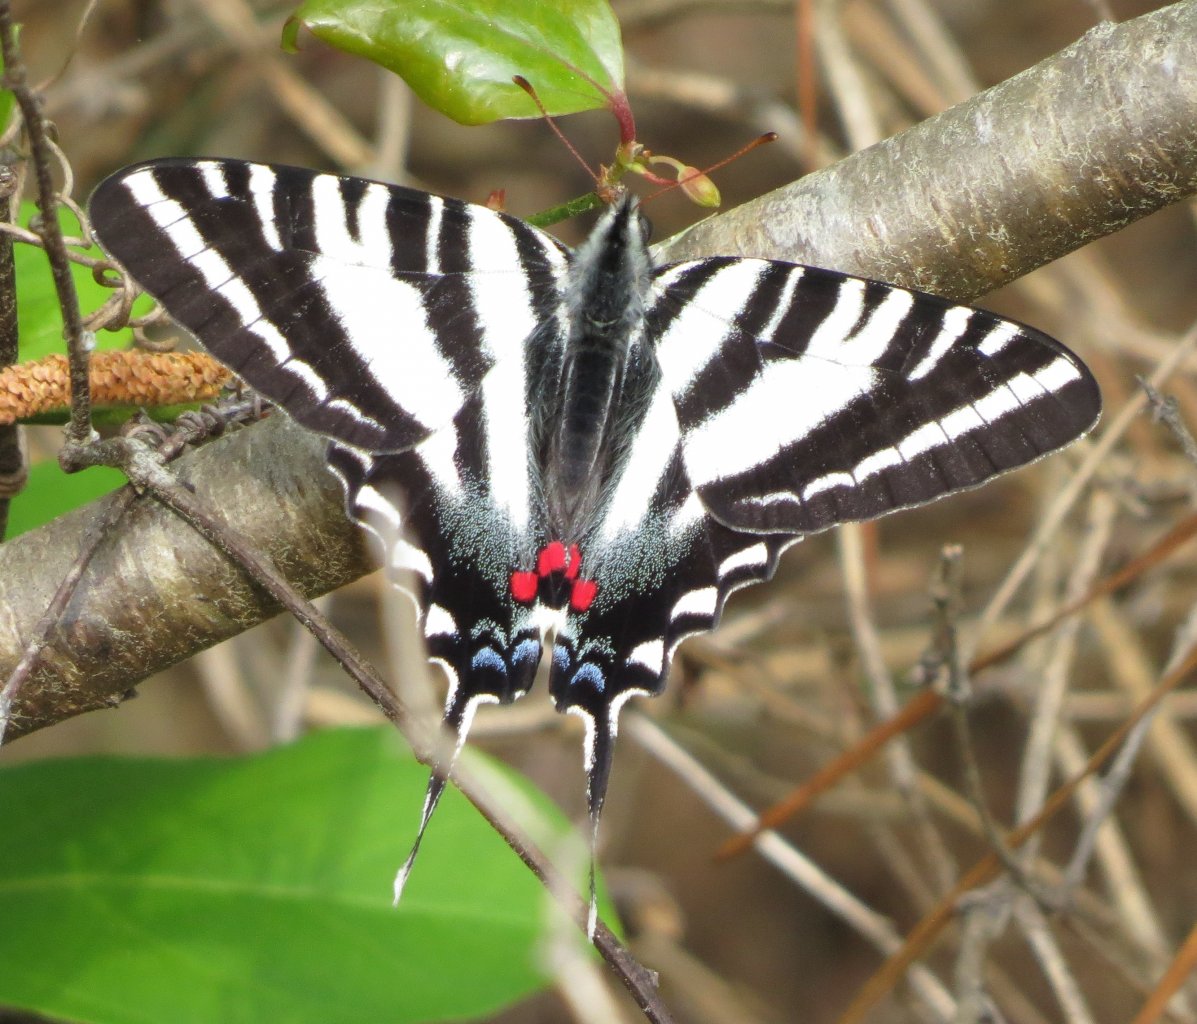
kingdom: Animalia
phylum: Arthropoda
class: Insecta
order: Lepidoptera
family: Papilionidae
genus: Protographium
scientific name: Protographium marcellus
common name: Zebra Swallowtail
